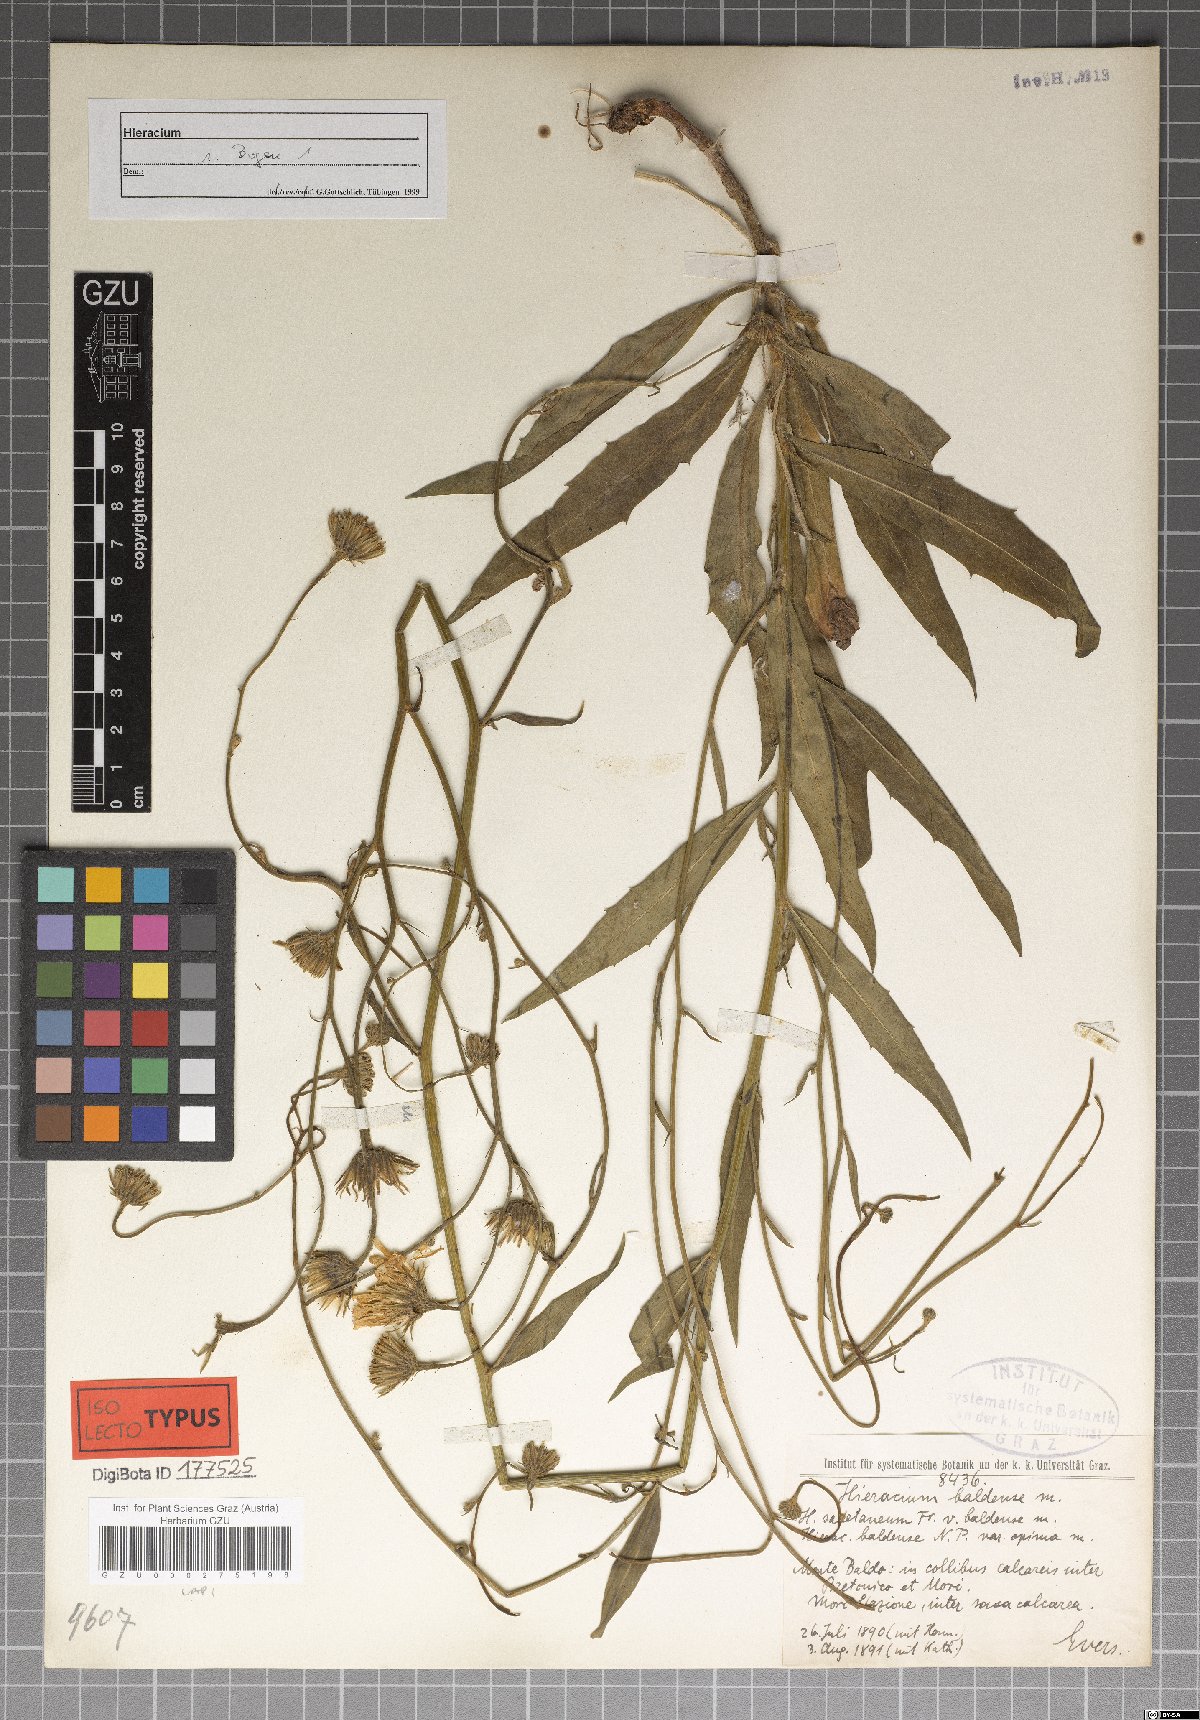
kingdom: Plantae
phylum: Tracheophyta
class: Magnoliopsida
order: Asterales
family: Asteraceae
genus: Hieracium
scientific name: Hieracium calcareum
